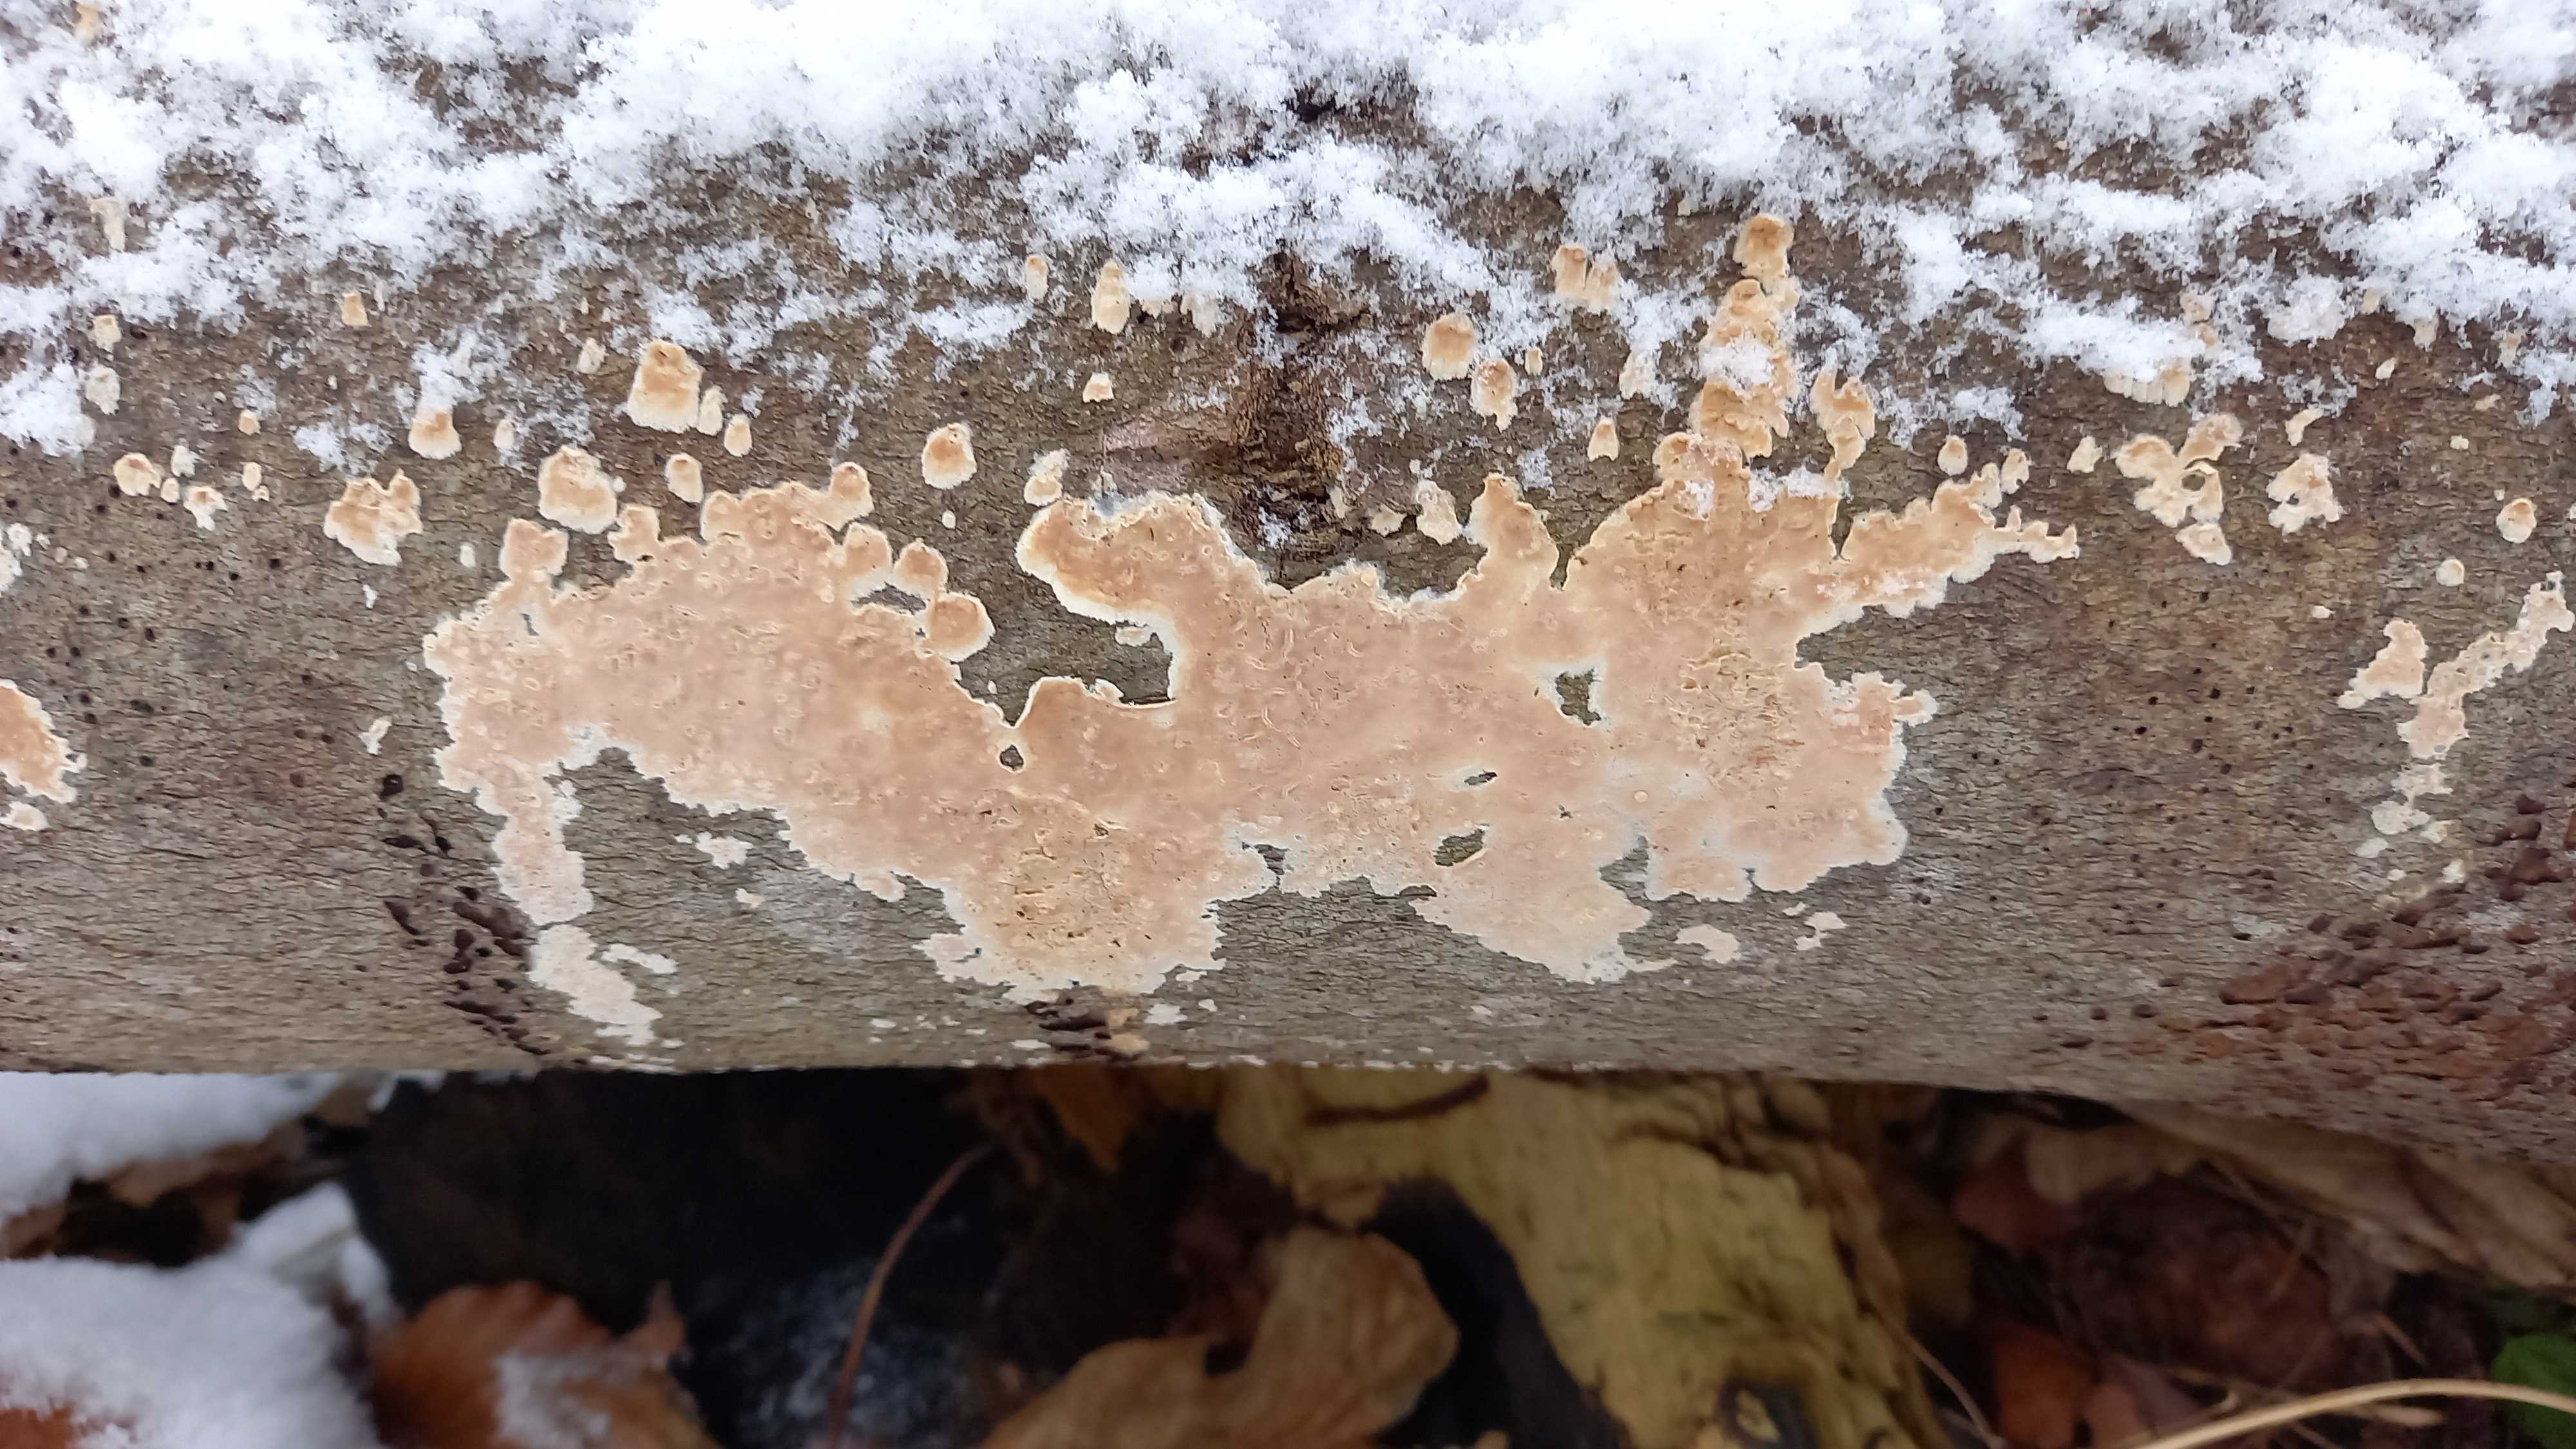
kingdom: Fungi
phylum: Basidiomycota
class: Agaricomycetes
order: Agaricales
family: Physalacriaceae
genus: Cylindrobasidium
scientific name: Cylindrobasidium evolvens
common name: sprækkehinde
